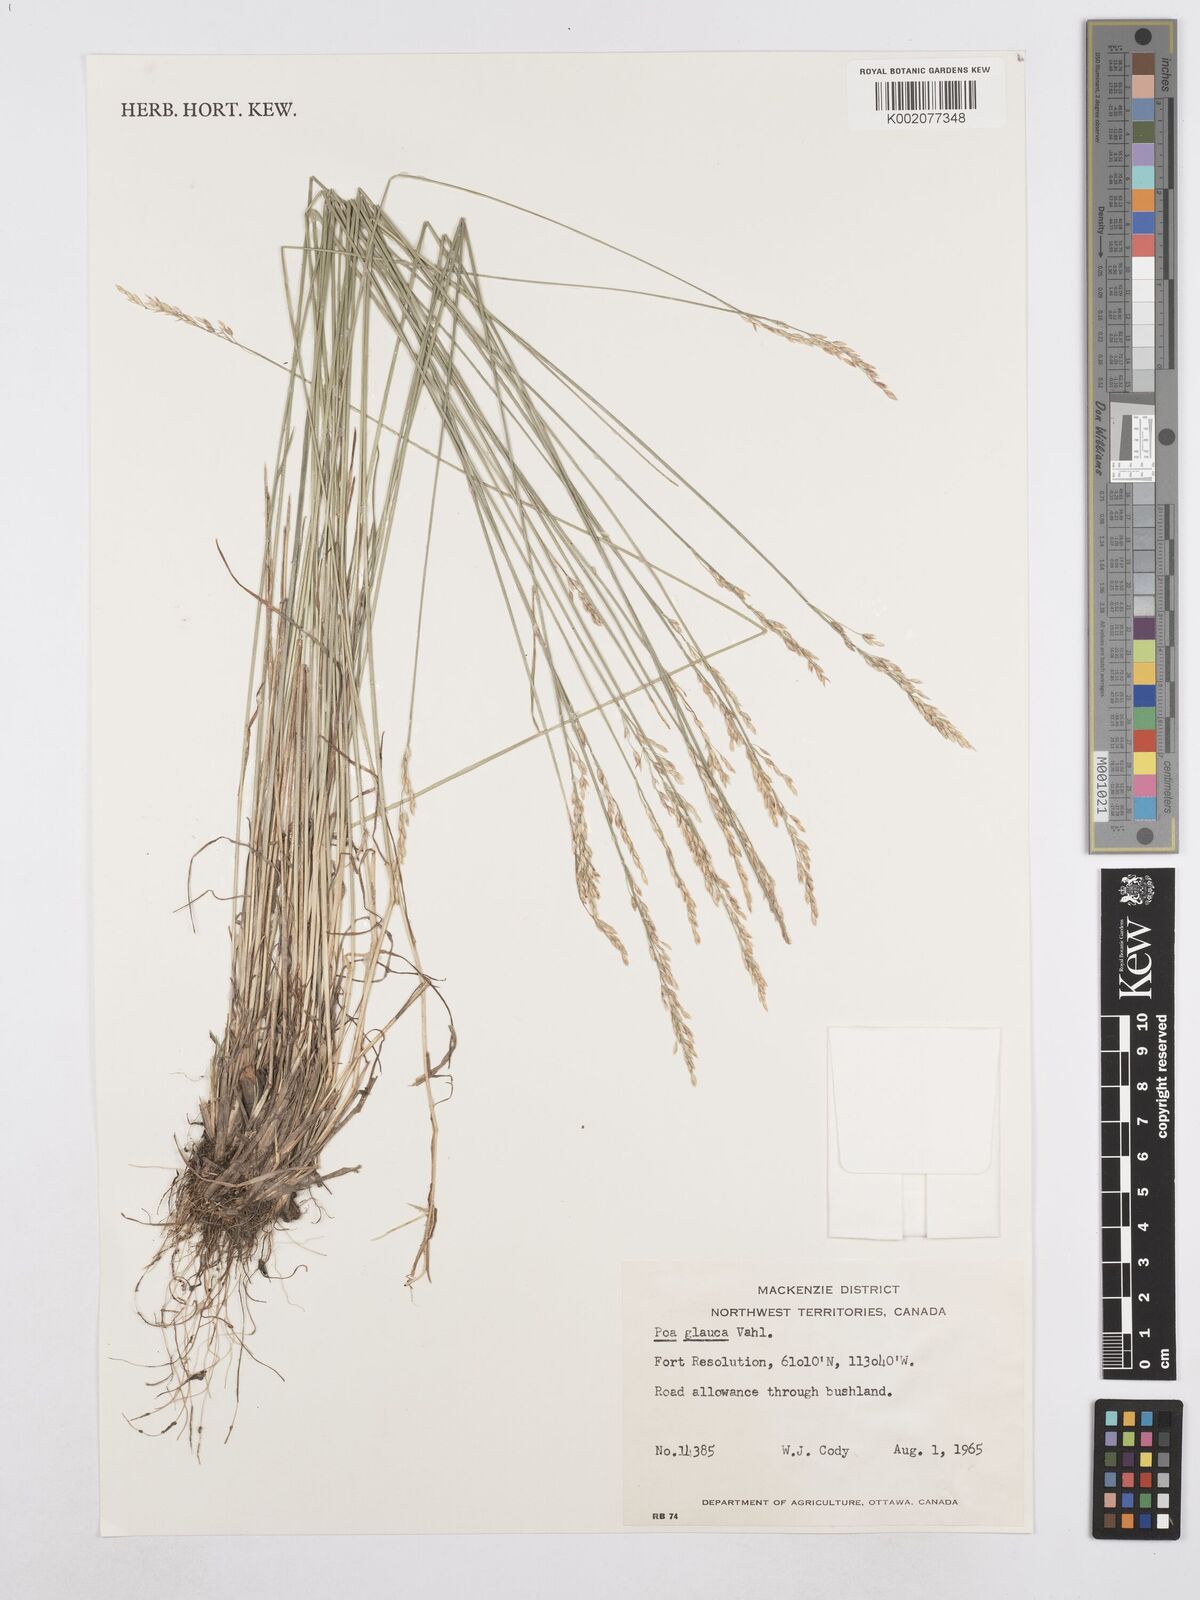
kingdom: Plantae
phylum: Tracheophyta
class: Liliopsida
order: Poales
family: Poaceae
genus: Poa
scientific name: Poa glauca
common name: Glaucous bluegrass
